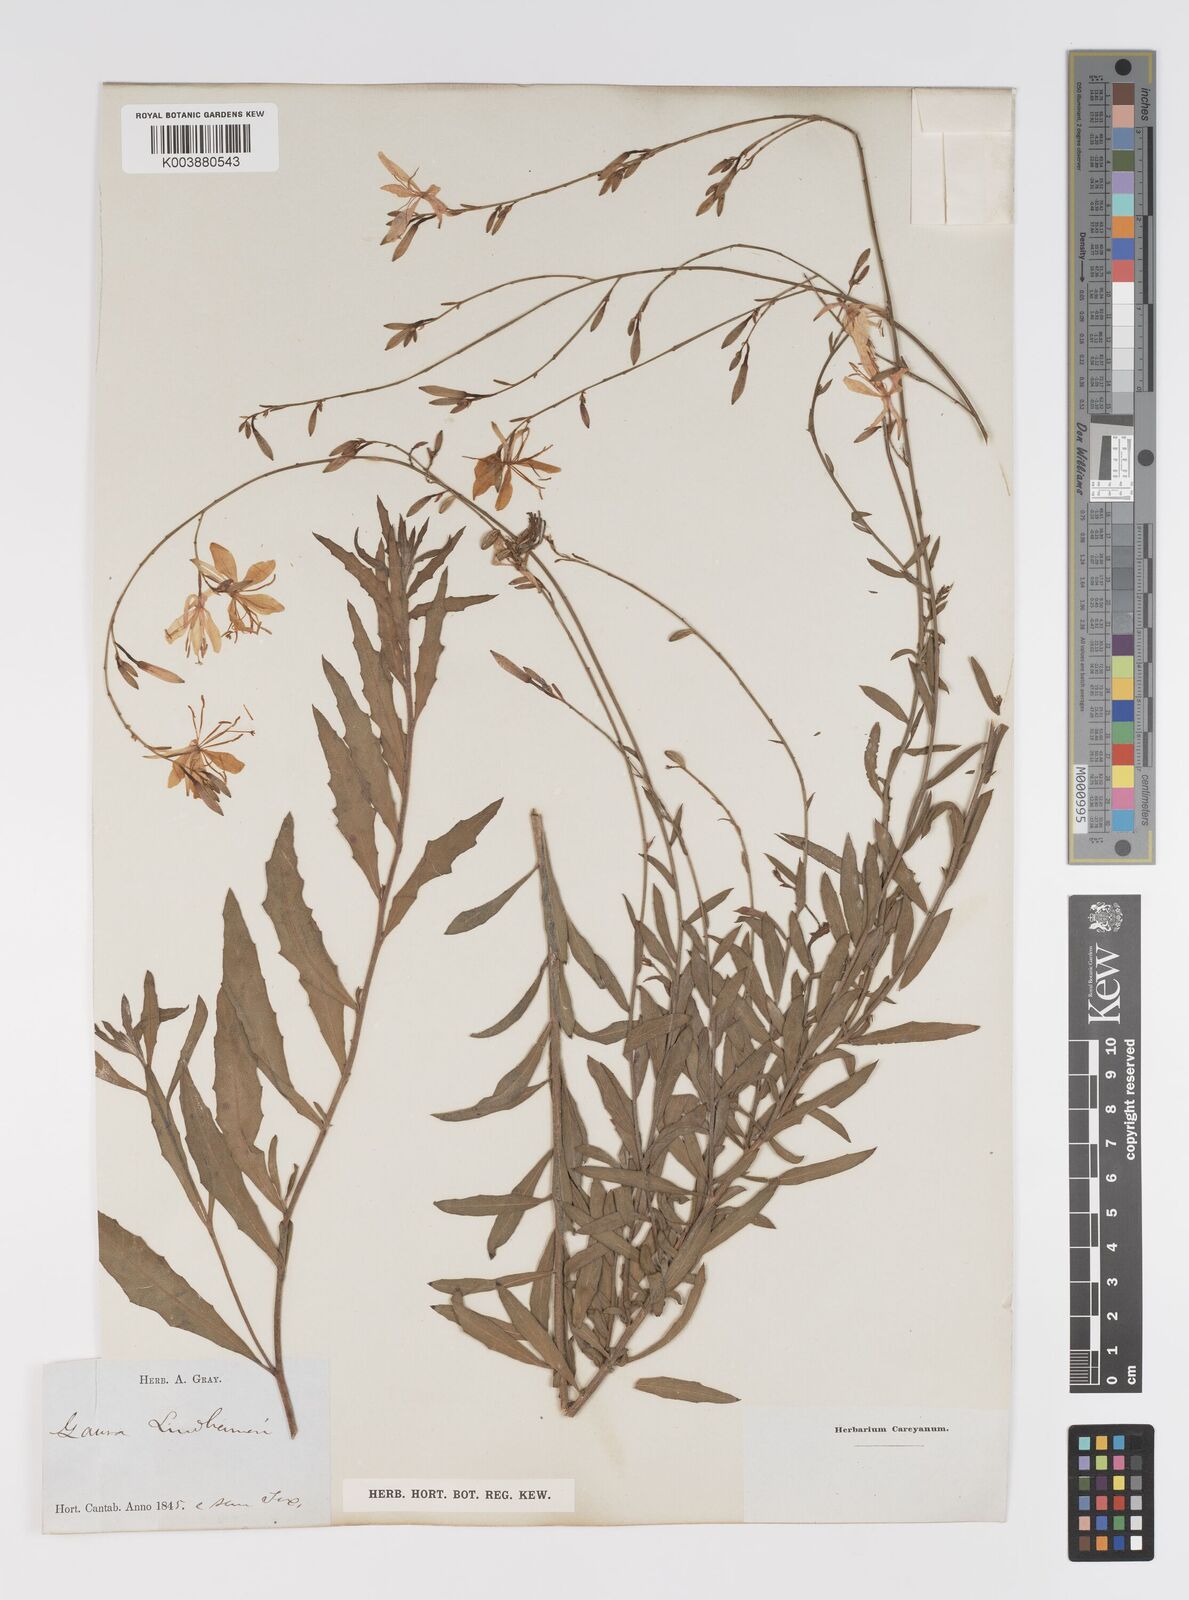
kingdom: Plantae
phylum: Tracheophyta
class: Magnoliopsida
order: Myrtales
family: Onagraceae
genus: Oenothera
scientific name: Oenothera lindheimeri
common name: Lindheimer's beeblossom
